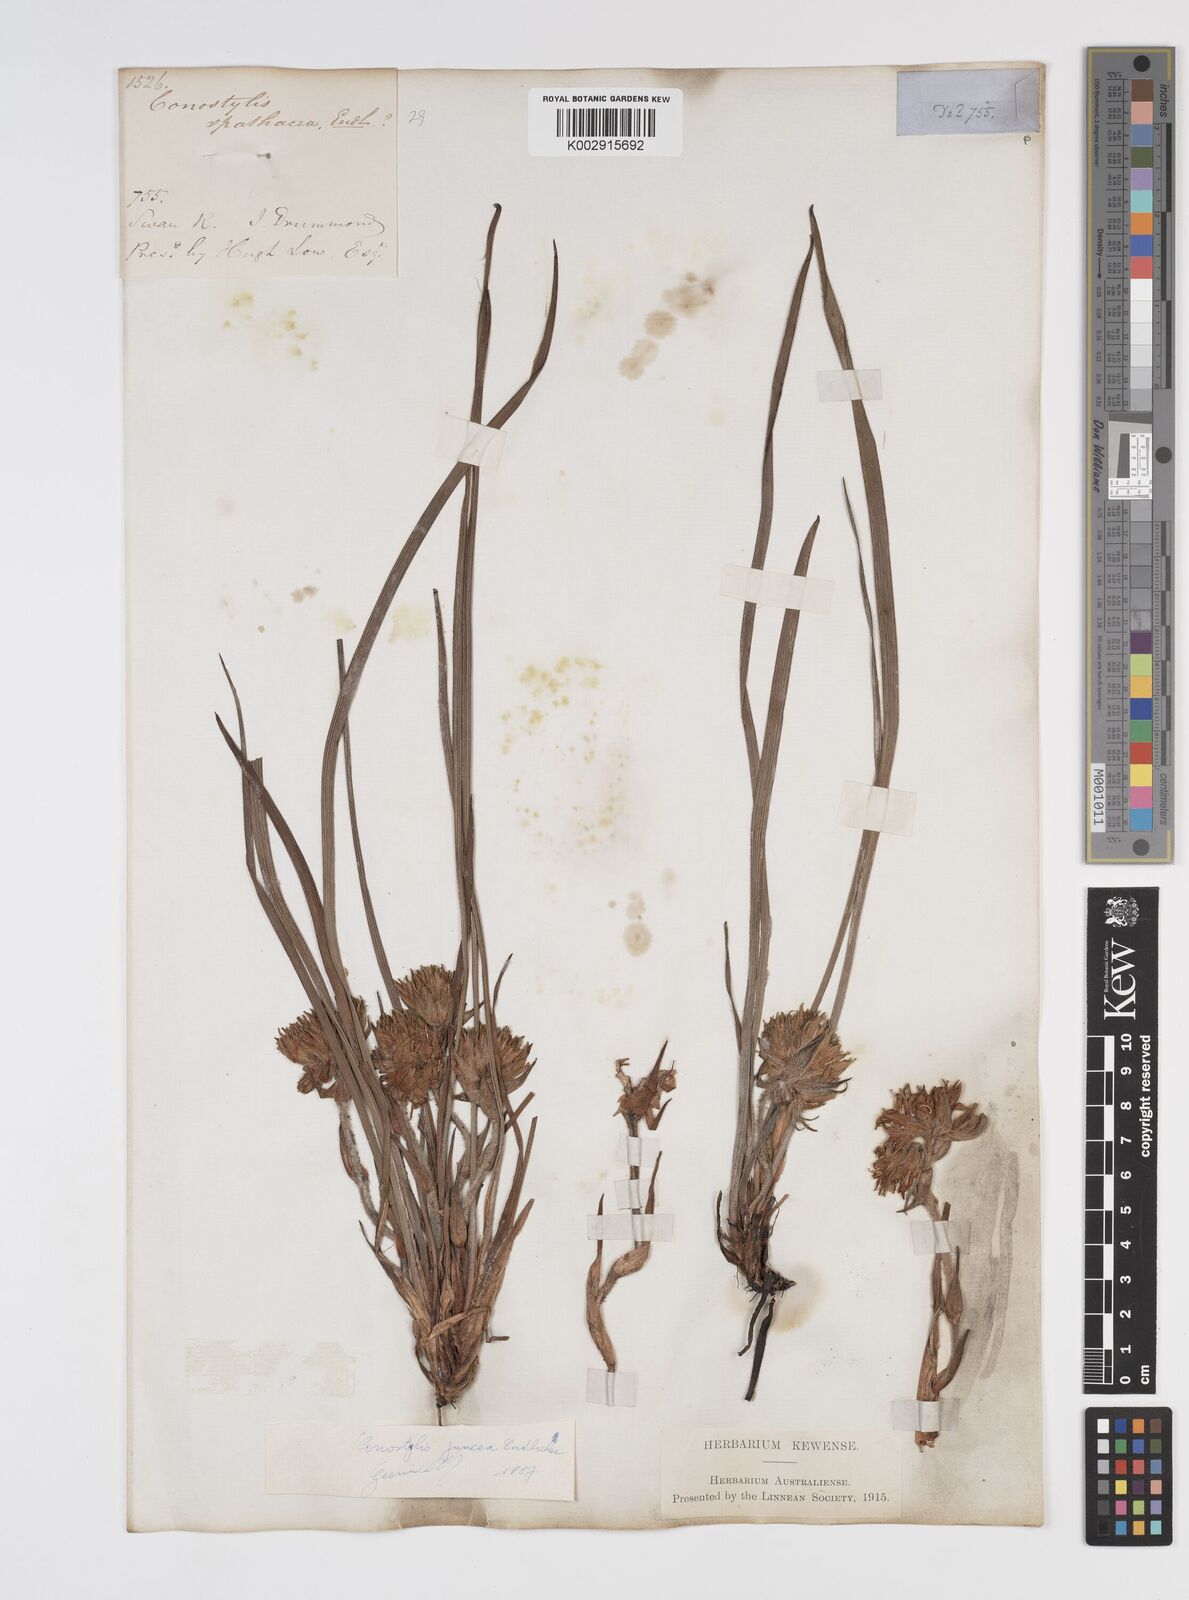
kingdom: Plantae
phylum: Tracheophyta
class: Liliopsida
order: Commelinales
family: Haemodoraceae
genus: Conostylis
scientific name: Conostylis juncea
